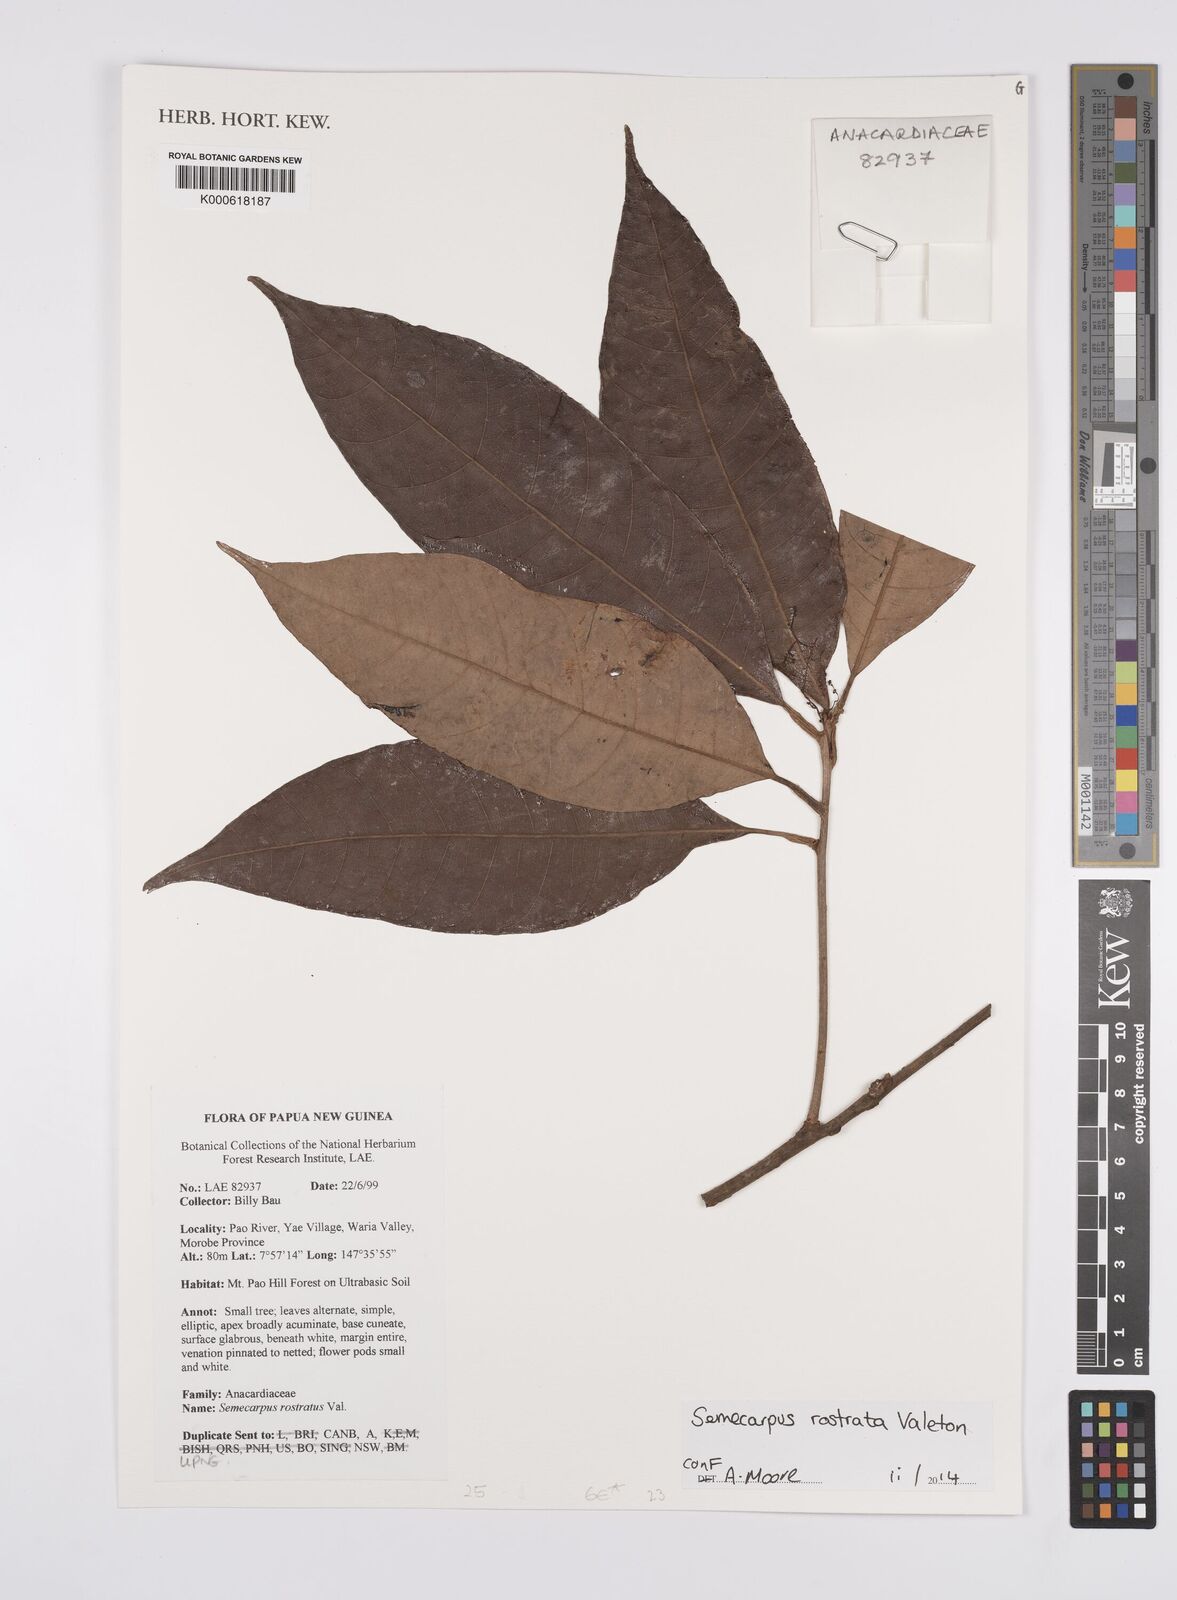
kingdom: Plantae
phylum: Tracheophyta
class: Magnoliopsida
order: Sapindales
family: Anacardiaceae
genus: Semecarpus
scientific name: Semecarpus rostratus
